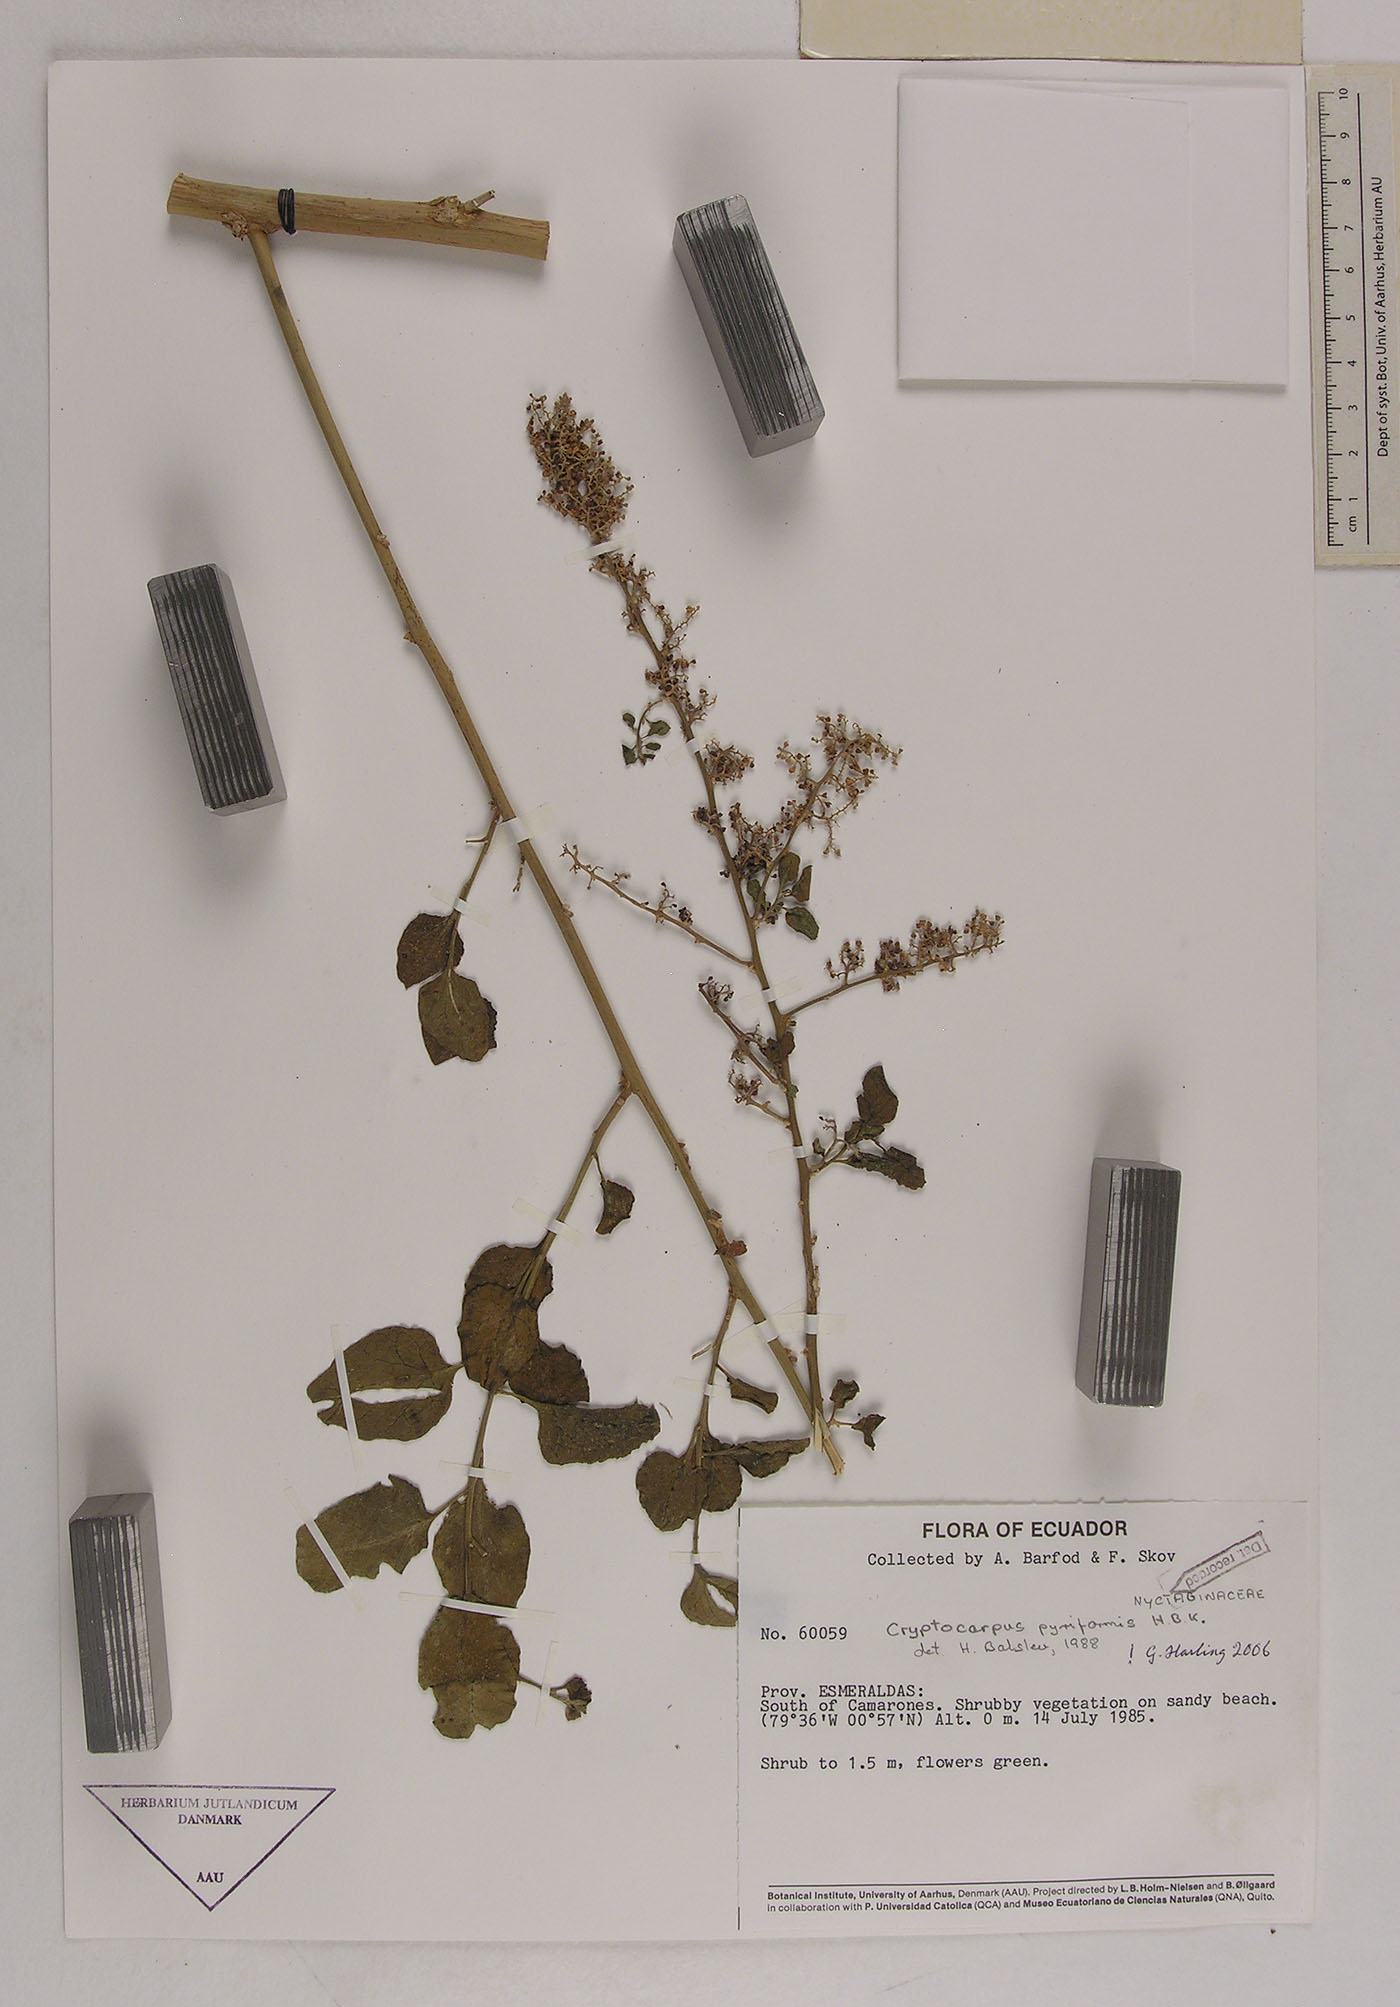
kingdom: Plantae
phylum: Tracheophyta
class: Magnoliopsida
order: Caryophyllales
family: Nyctaginaceae
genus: Cryptocarpus
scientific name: Cryptocarpus pyriformis
